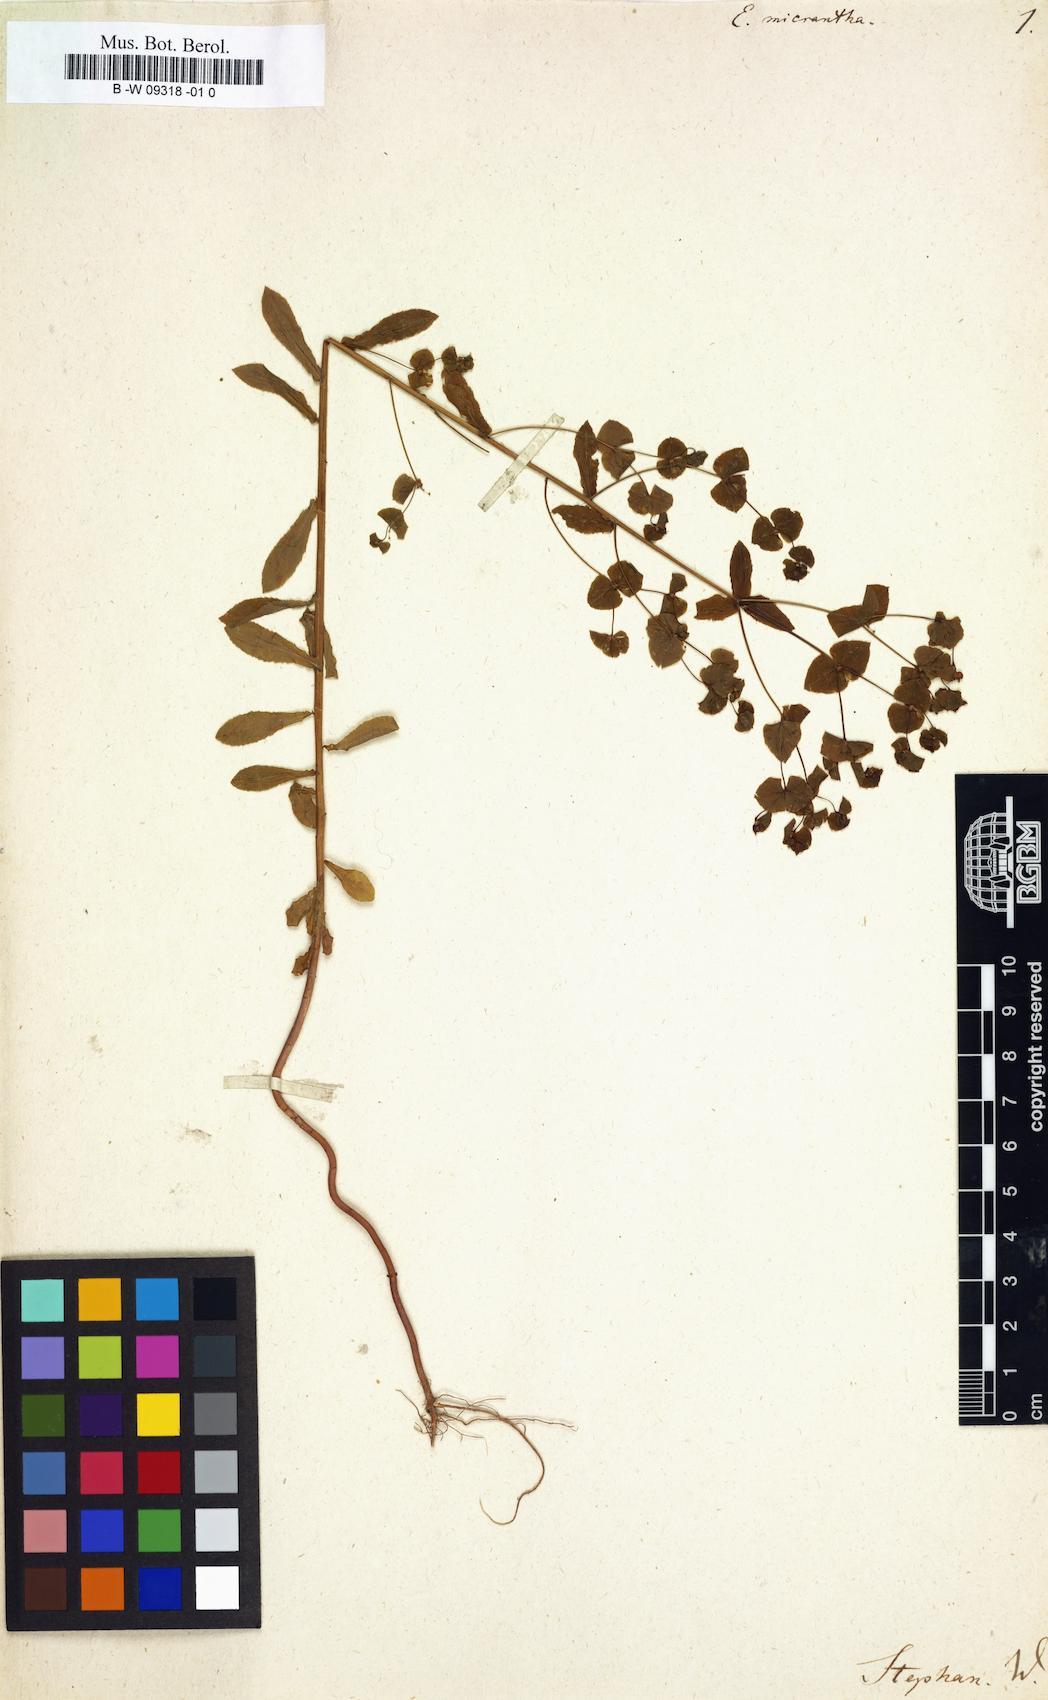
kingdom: Plantae
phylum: Tracheophyta
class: Magnoliopsida
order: Malpighiales
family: Euphorbiaceae
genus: Euphorbia
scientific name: Euphorbia stricta
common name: Upright spurge
